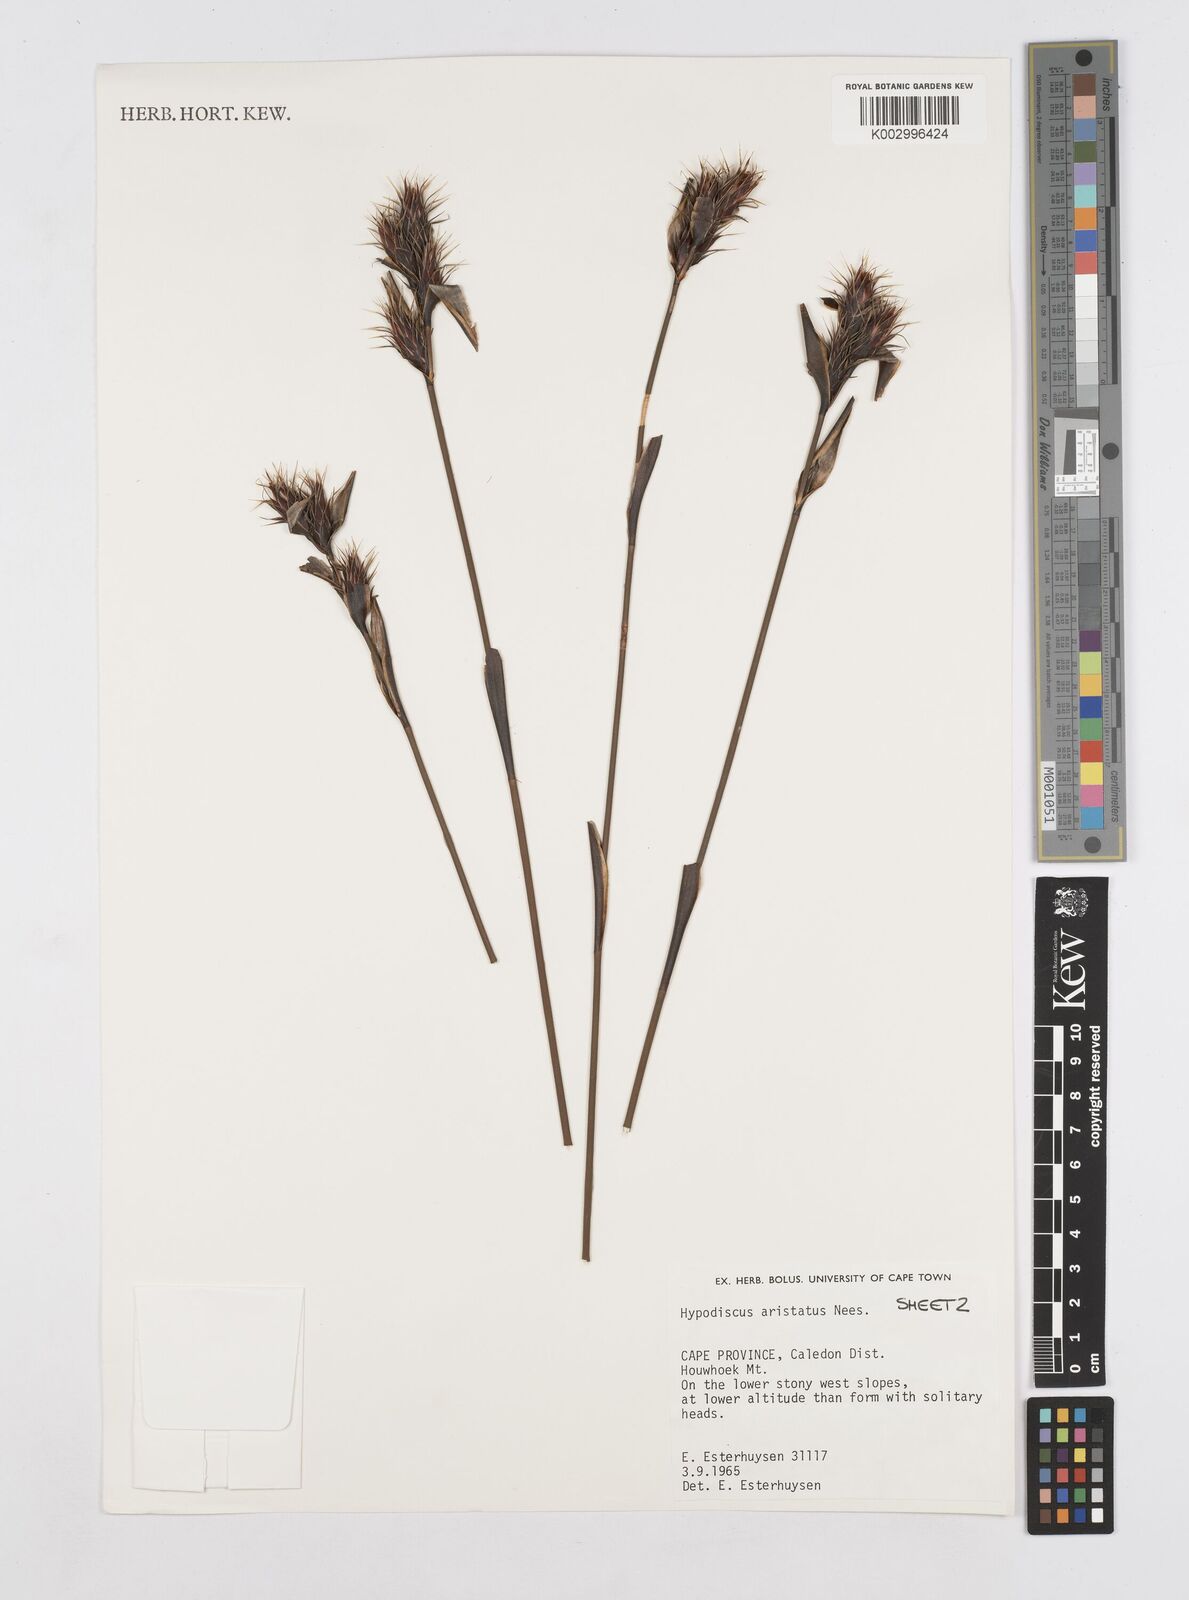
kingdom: Plantae
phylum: Tracheophyta
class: Liliopsida
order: Poales
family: Restionaceae
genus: Hypodiscus
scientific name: Hypodiscus aristatus
